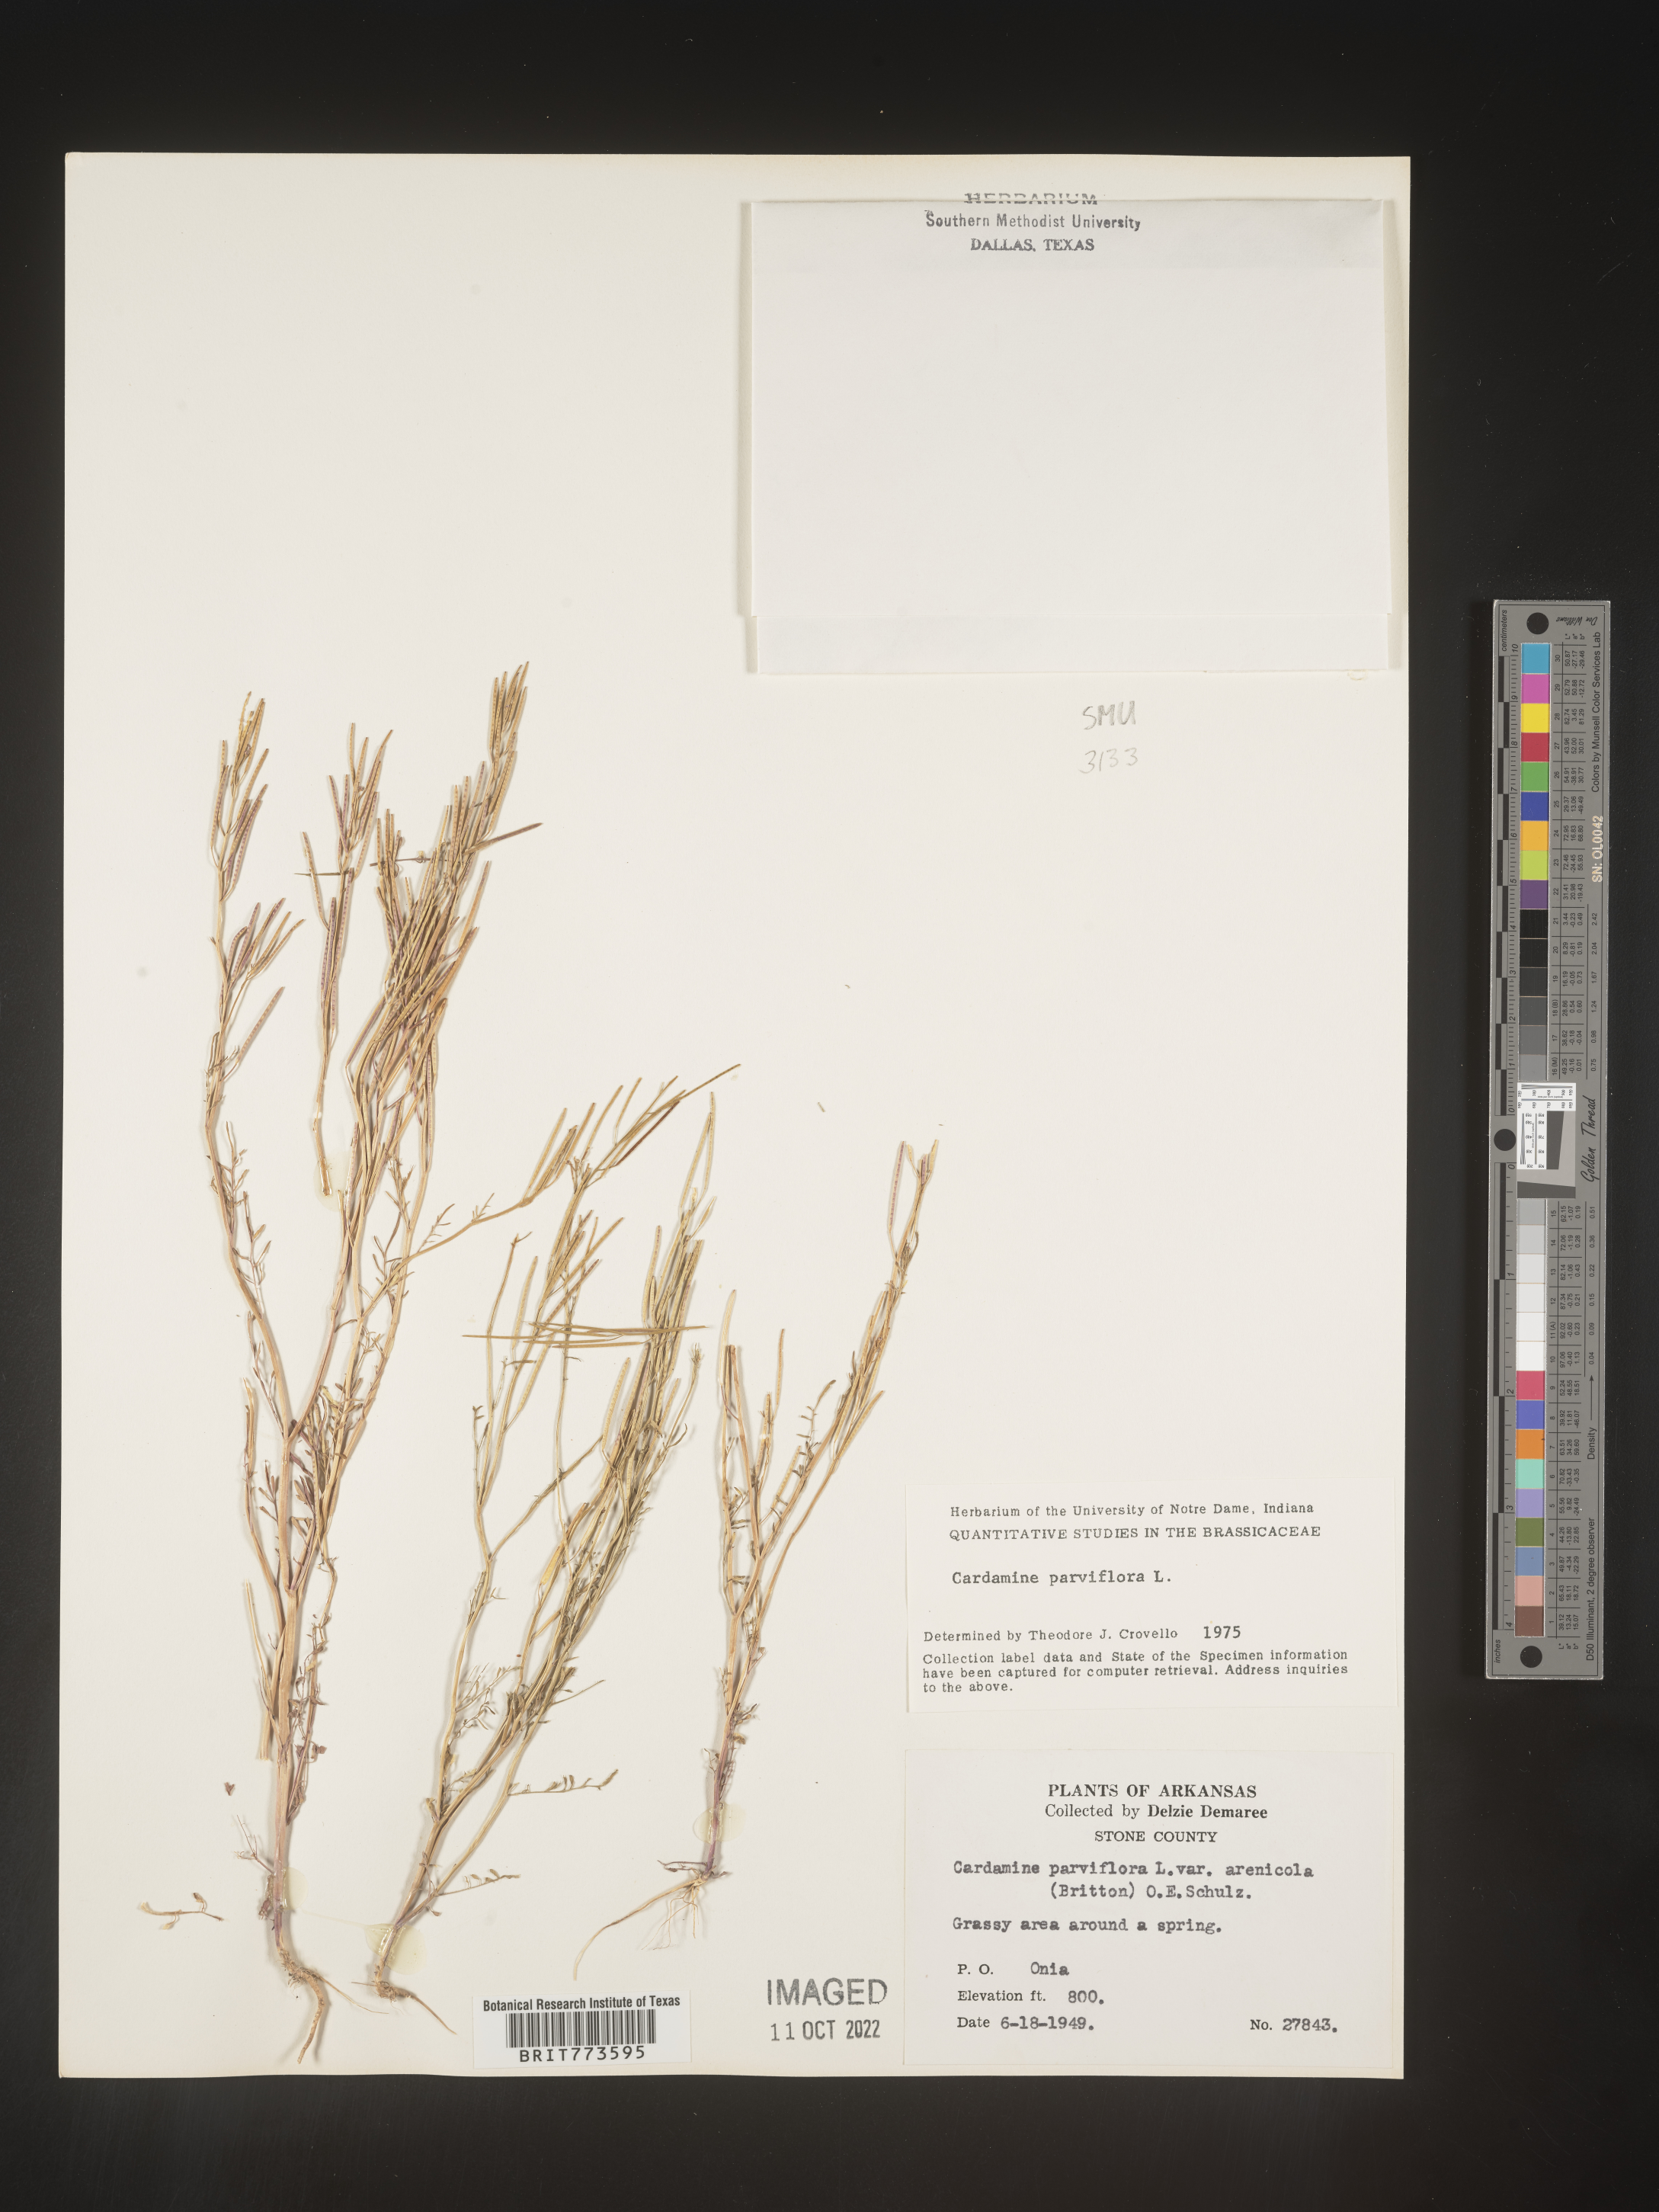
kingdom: Plantae
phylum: Tracheophyta
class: Magnoliopsida
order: Brassicales
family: Brassicaceae
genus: Cardamine
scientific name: Cardamine parviflora
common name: Sand bittercress
